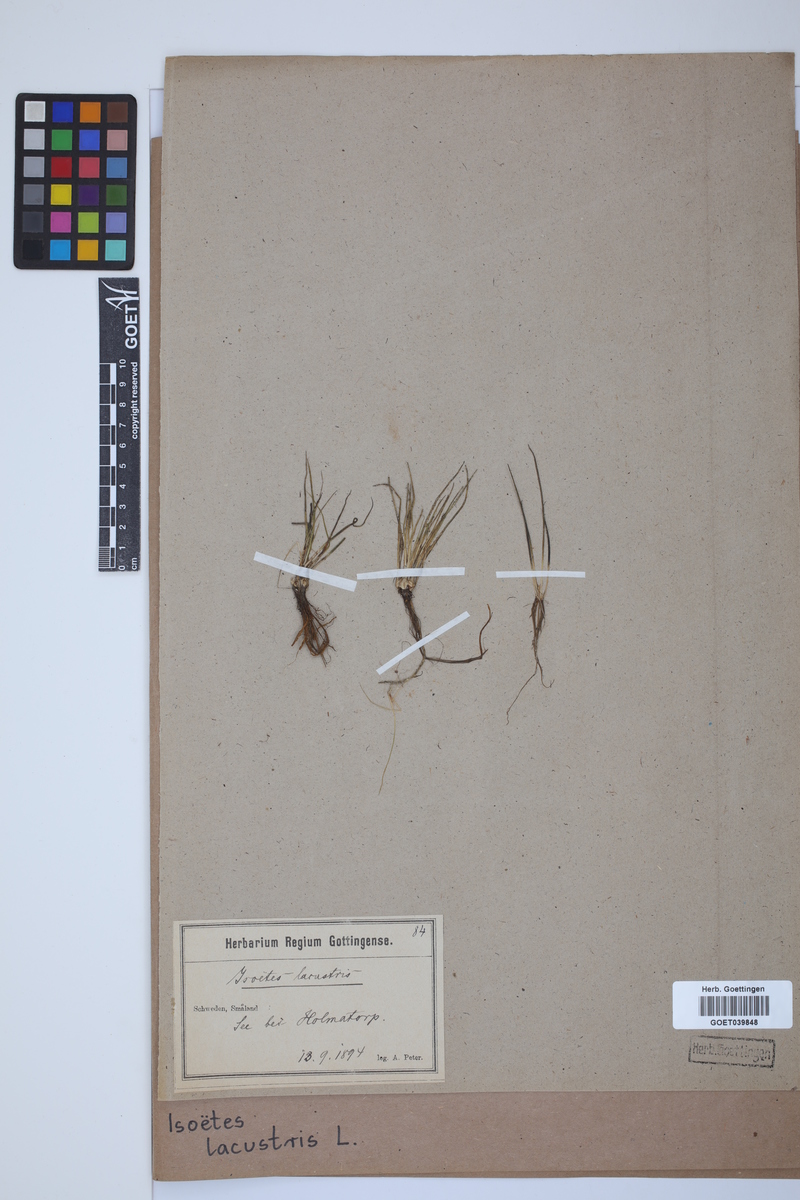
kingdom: Plantae
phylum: Tracheophyta
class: Lycopodiopsida
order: Isoetales
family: Isoetaceae
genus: Isoetes
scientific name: Isoetes lacustris
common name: Common quillwort
